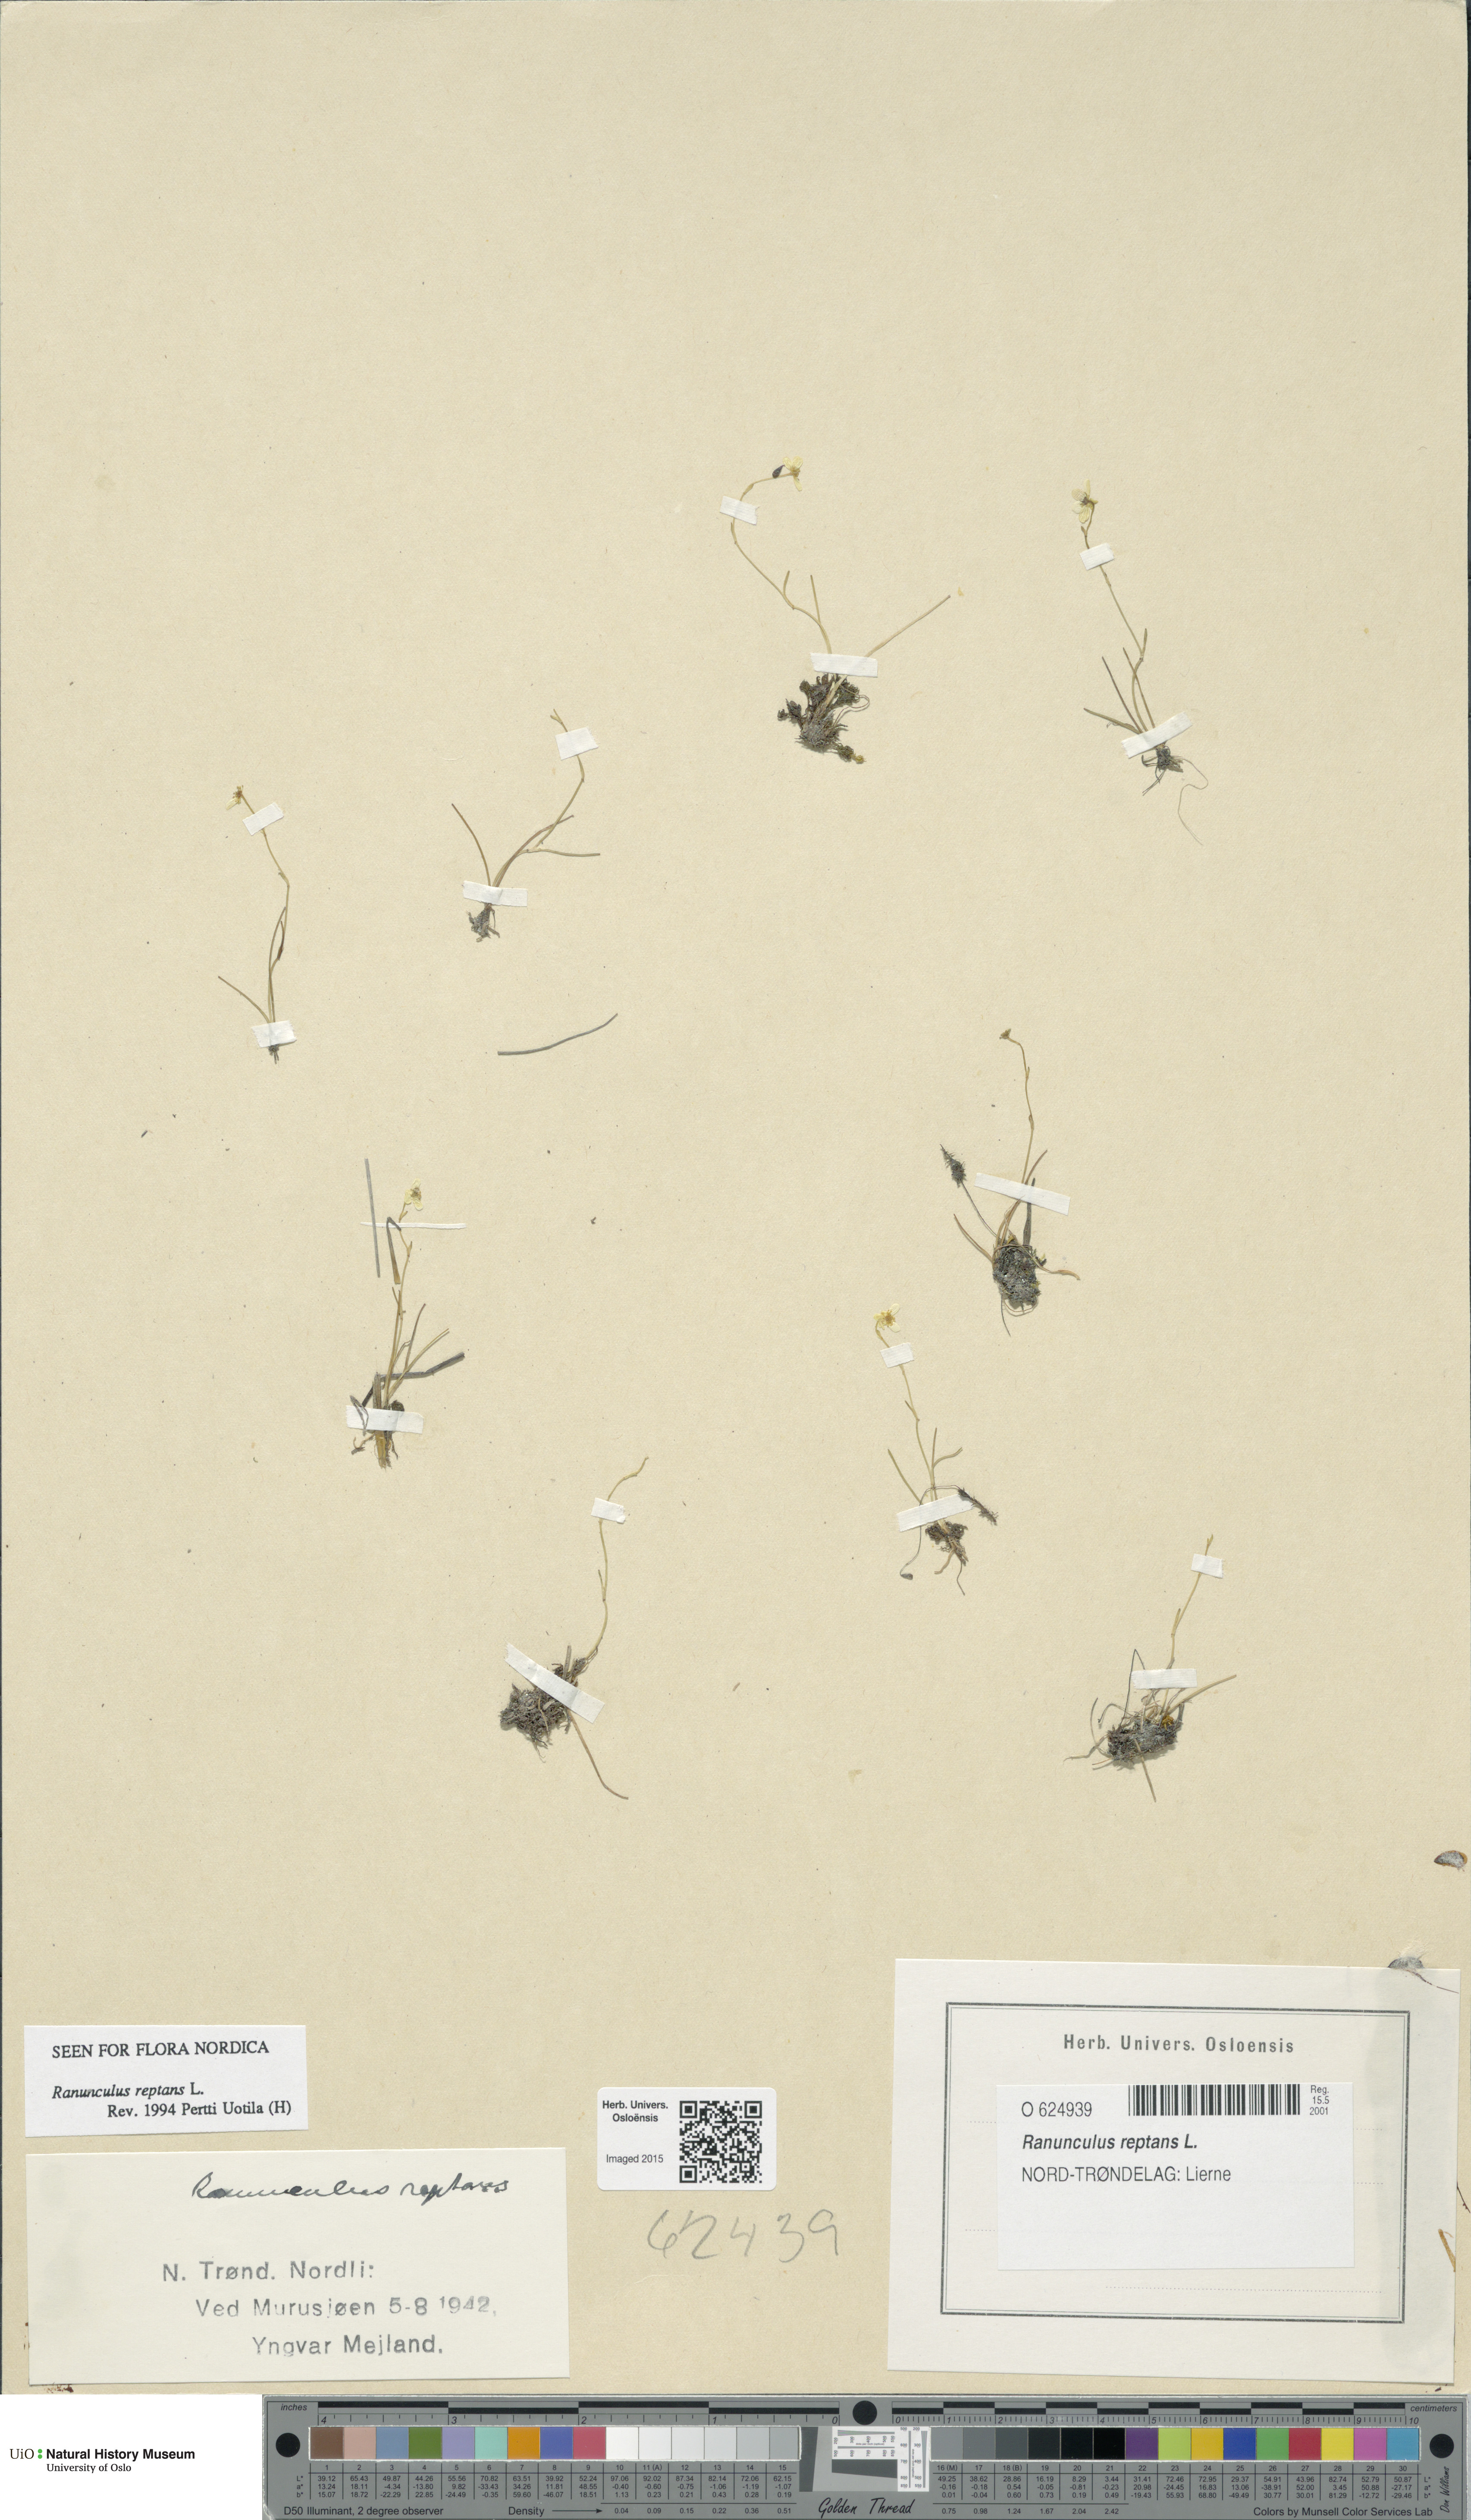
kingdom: Plantae
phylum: Tracheophyta
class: Magnoliopsida
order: Ranunculales
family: Ranunculaceae
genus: Ranunculus
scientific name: Ranunculus reptans
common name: Creeping spearwort
